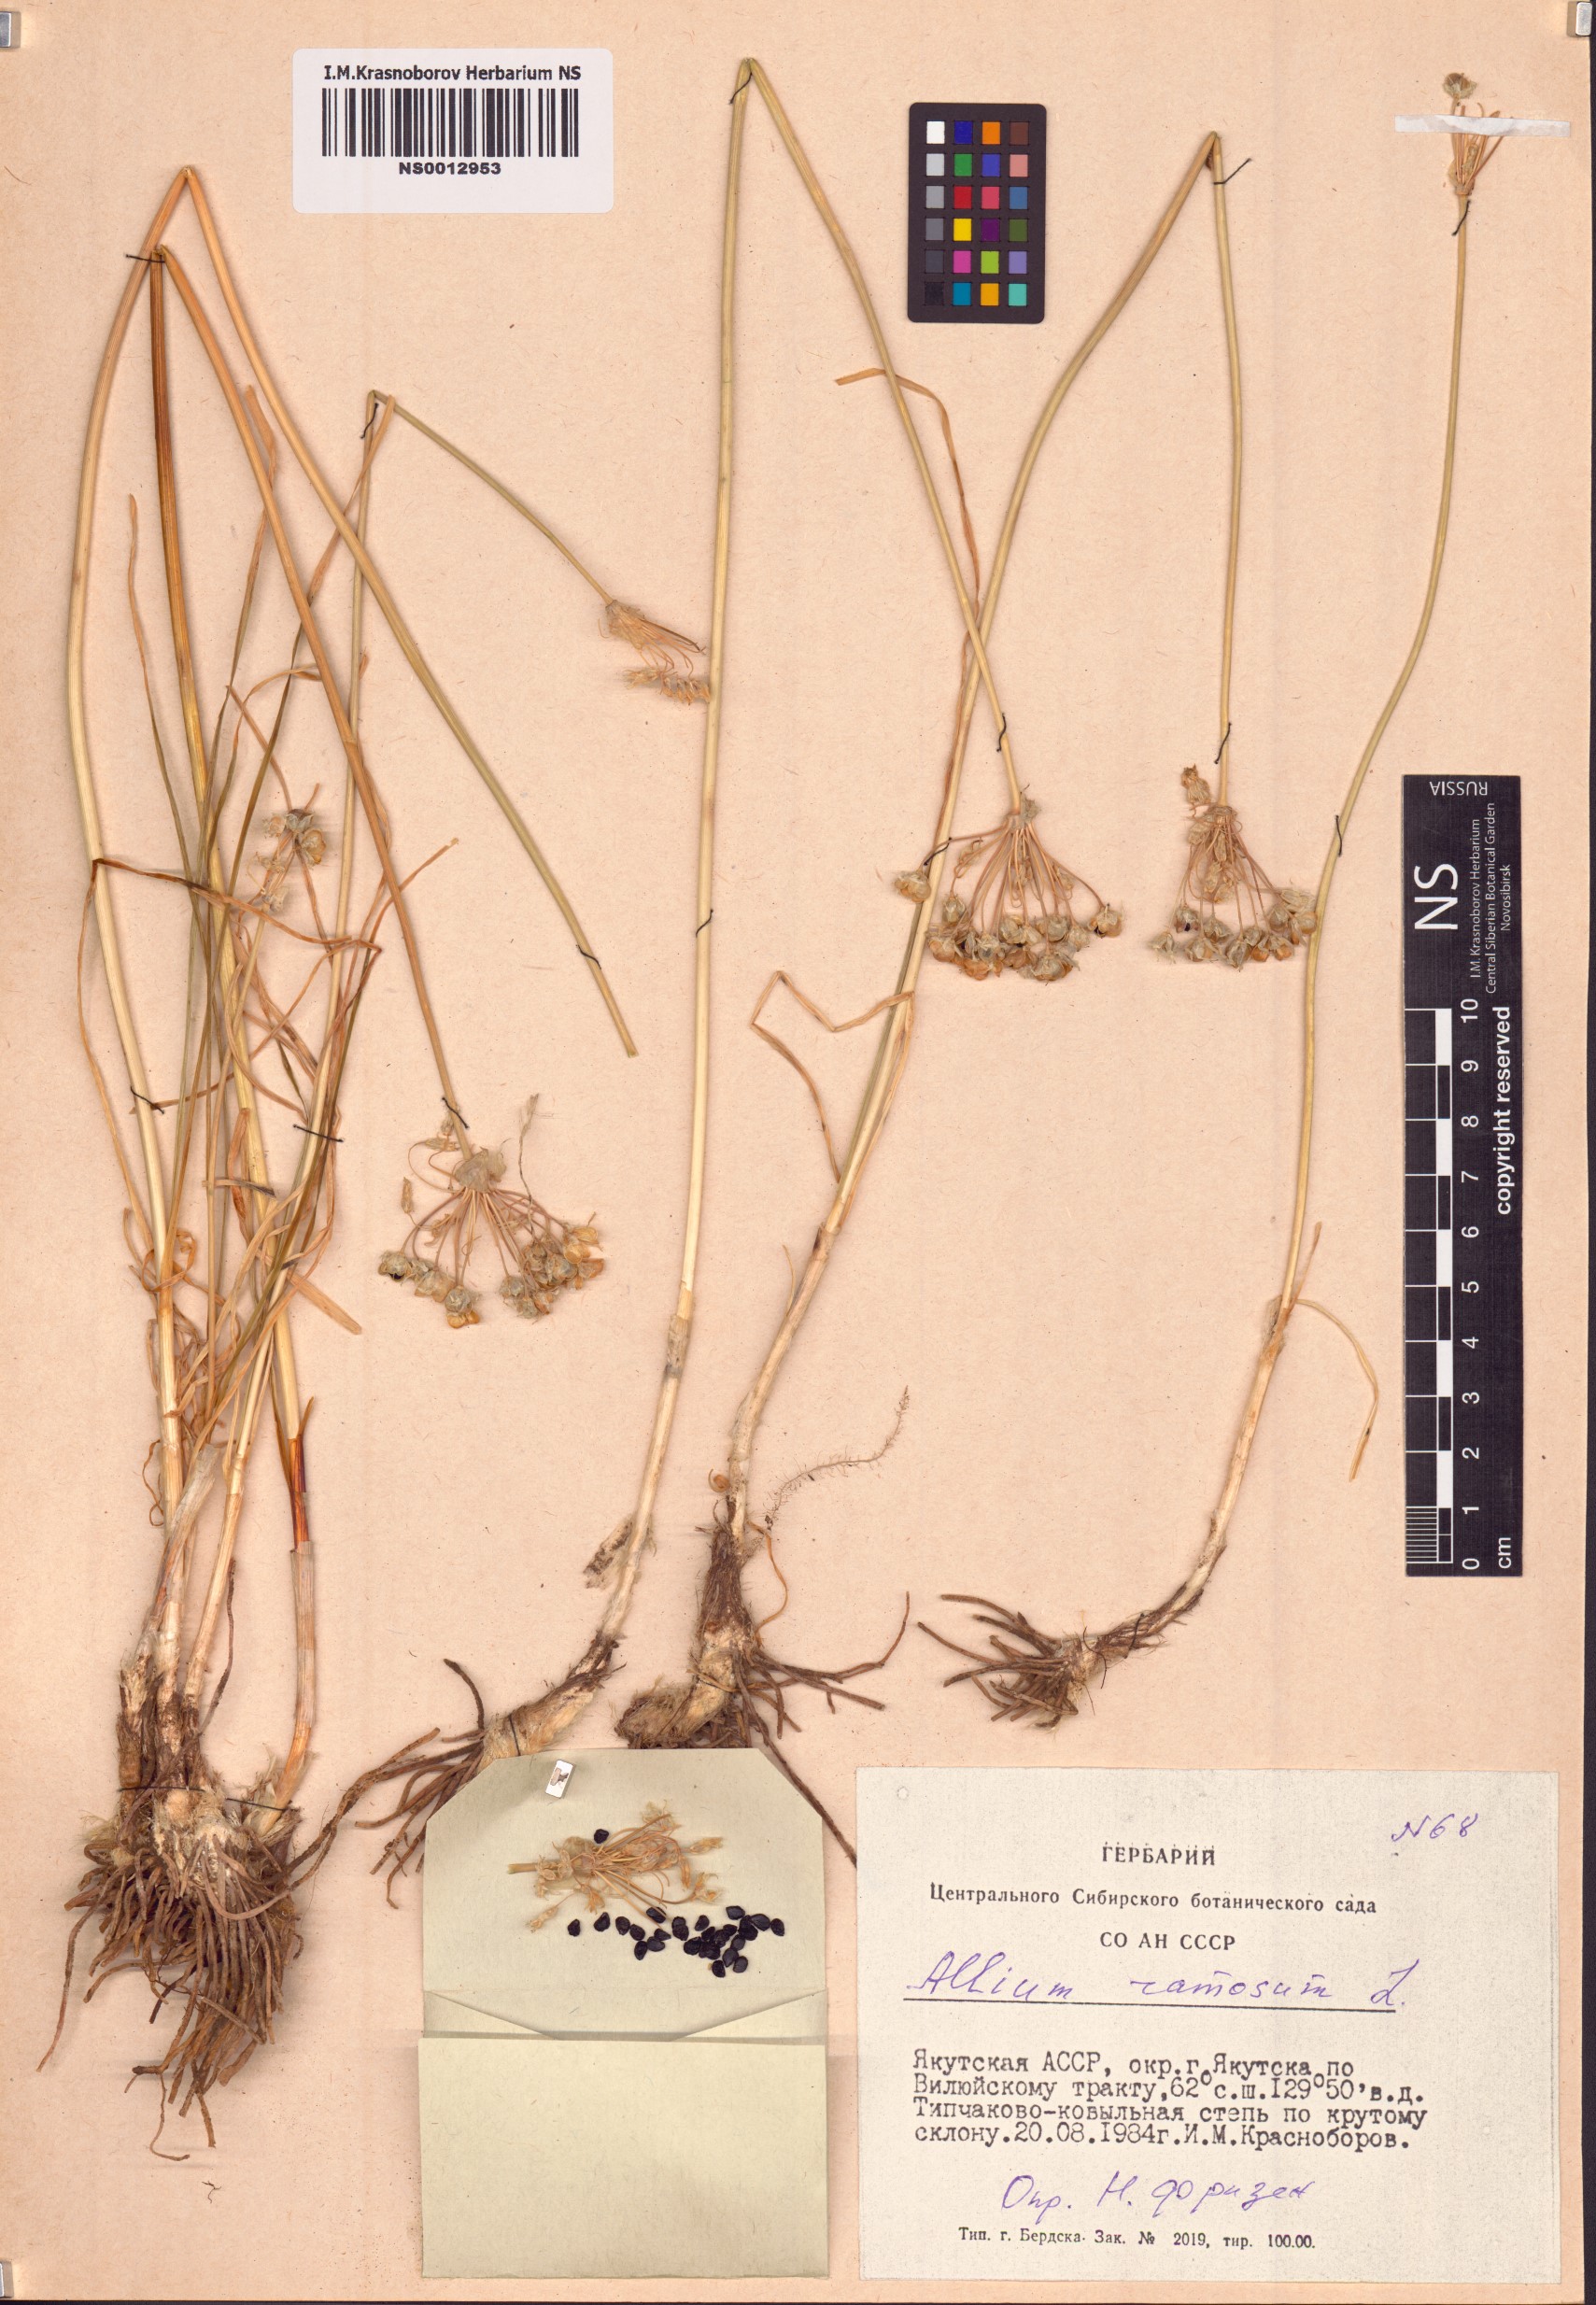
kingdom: Plantae
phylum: Tracheophyta
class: Liliopsida
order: Asparagales
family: Amaryllidaceae
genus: Allium
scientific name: Allium ramosum
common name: Fragrant garlic
